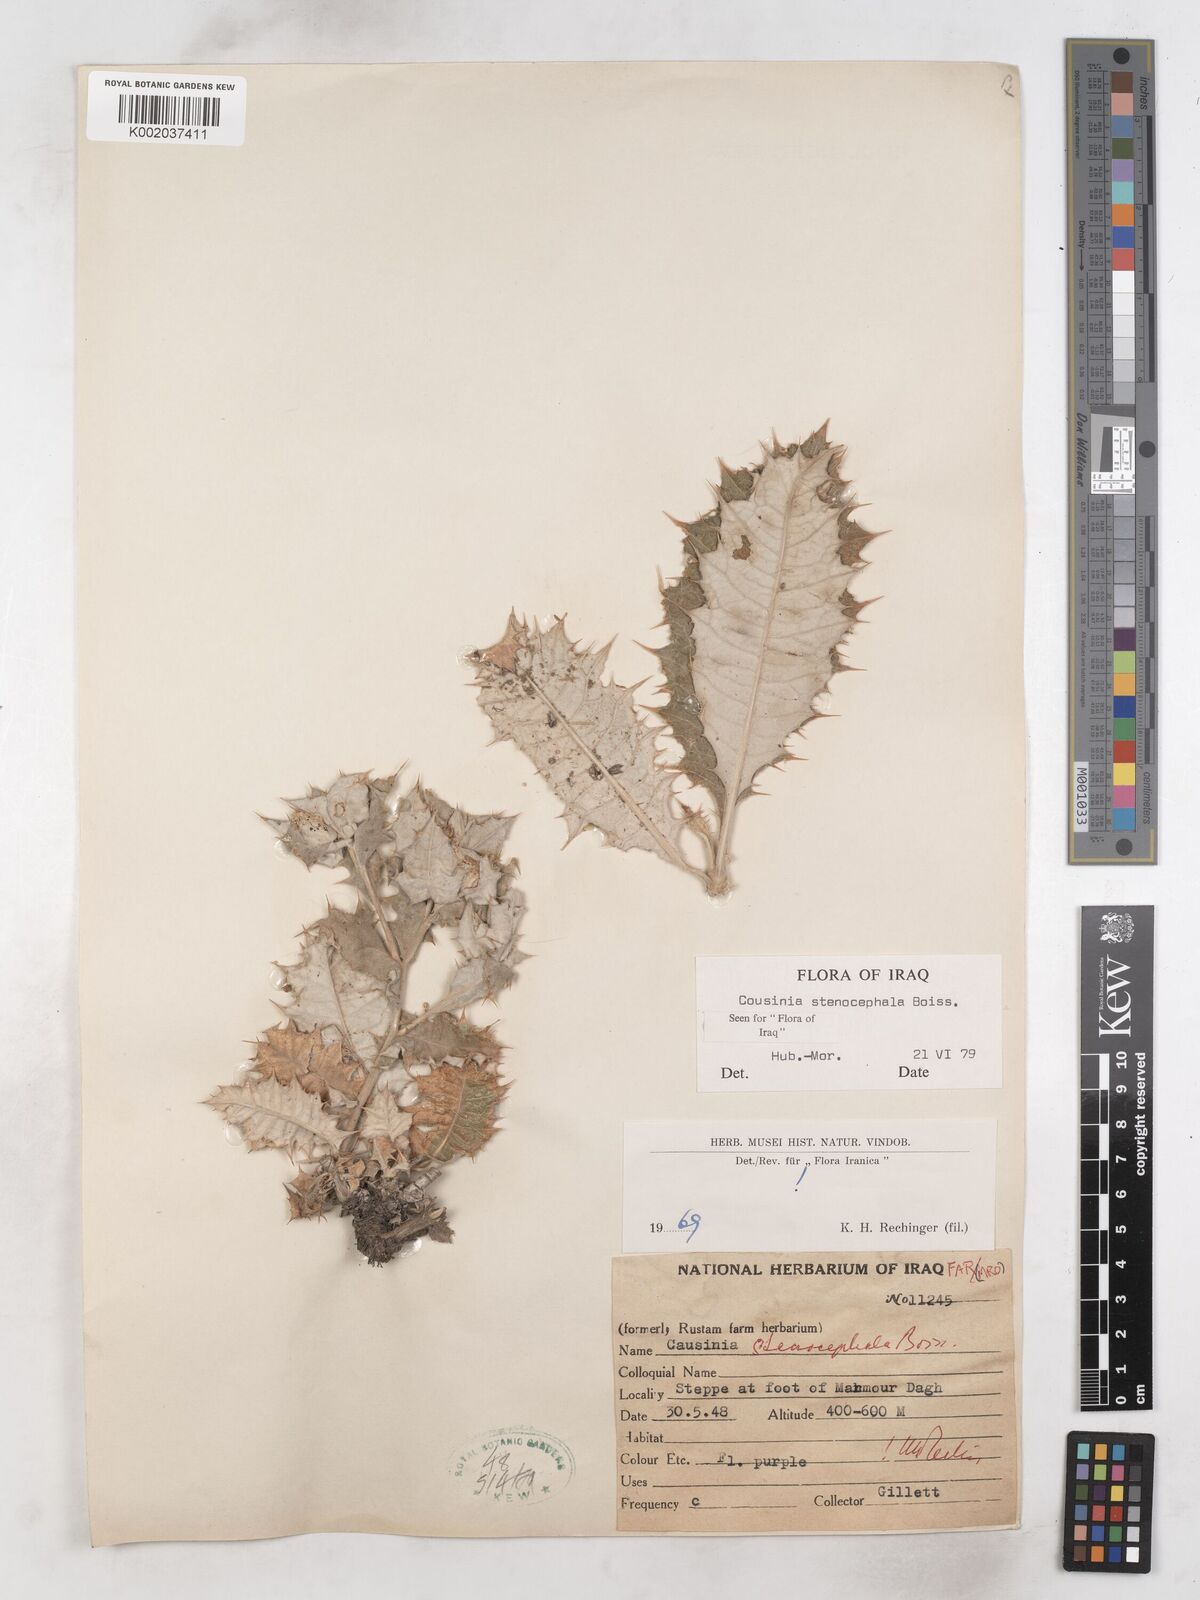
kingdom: Plantae
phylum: Tracheophyta
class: Magnoliopsida
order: Asterales
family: Asteraceae
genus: Cousinia
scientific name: Cousinia stenocephala
